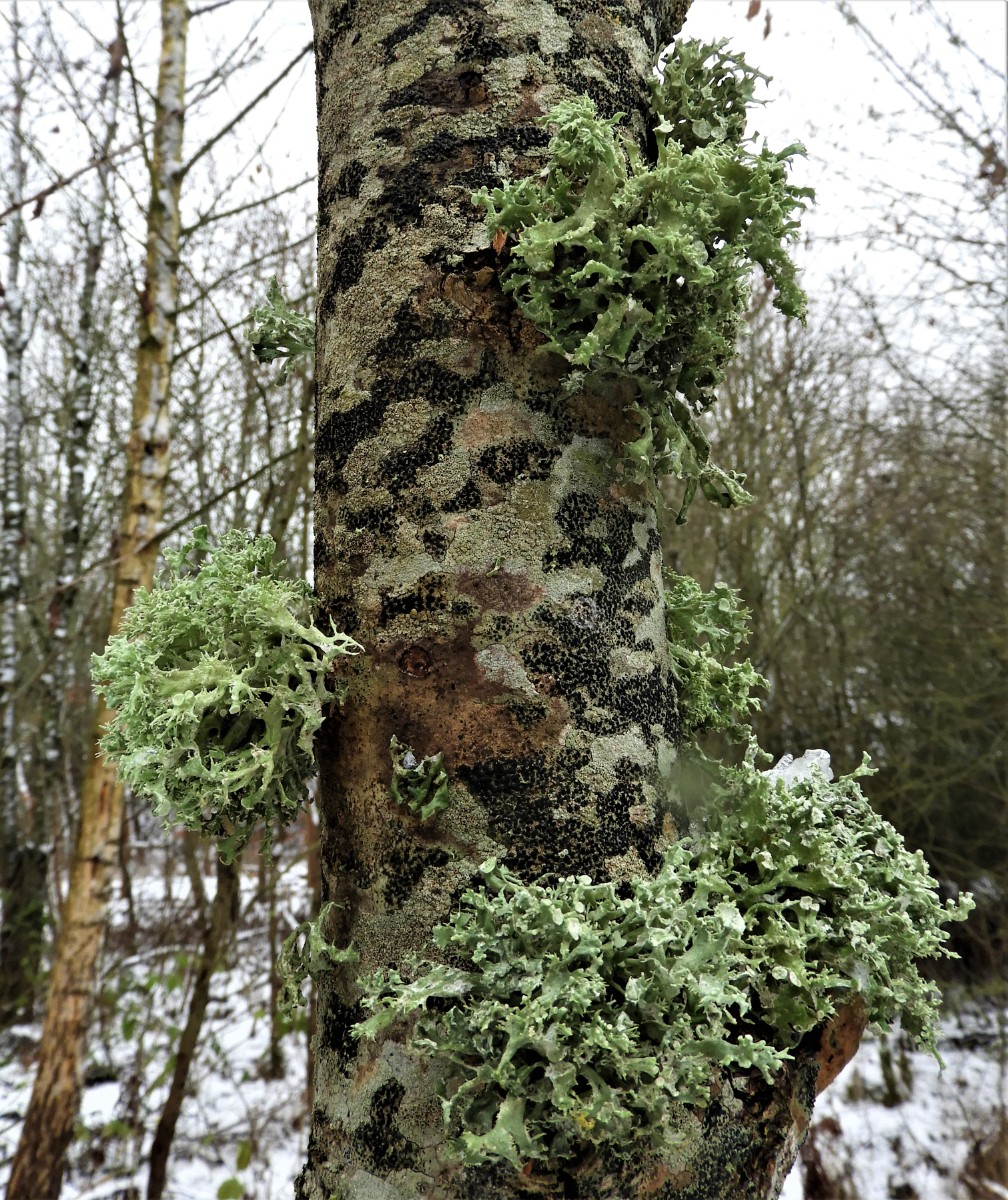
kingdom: Fungi
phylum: Ascomycota
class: Lecanoromycetes
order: Lecanorales
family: Ramalinaceae
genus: Ramalina
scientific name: Ramalina fastigiata
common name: tue-grenlav
